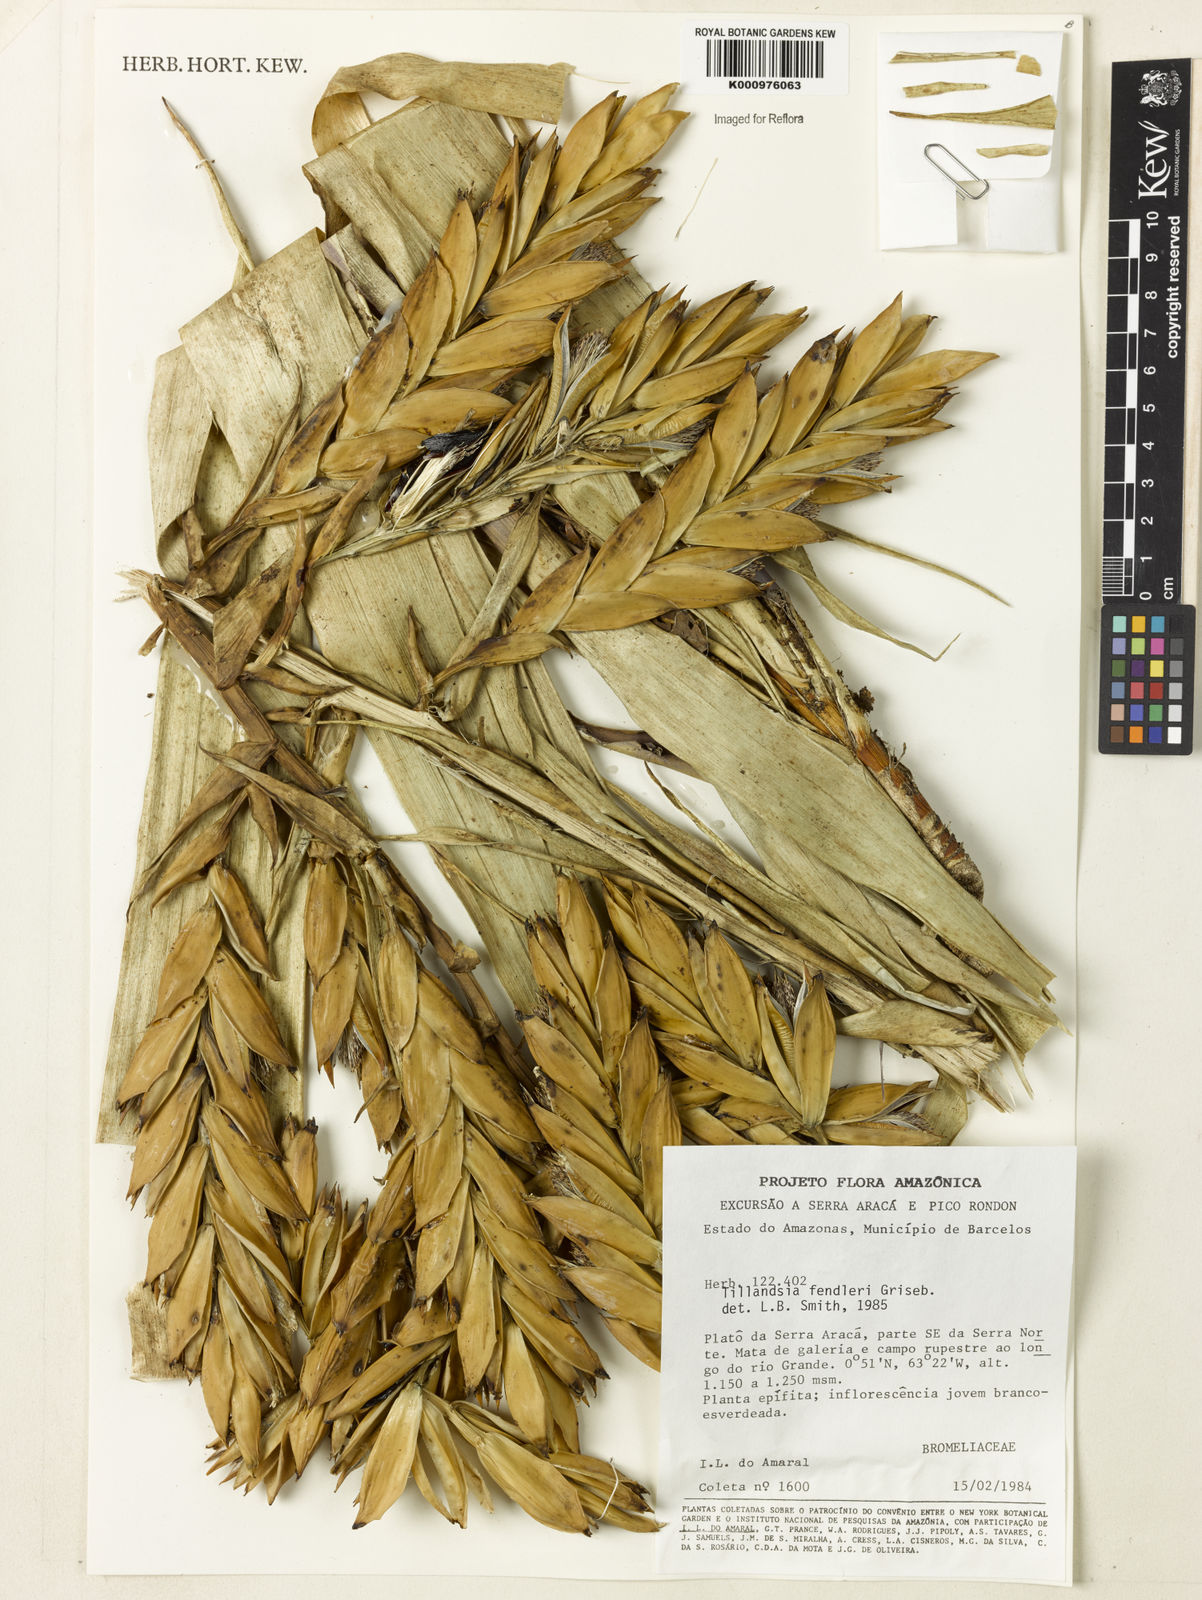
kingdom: Plantae
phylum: Tracheophyta
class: Liliopsida
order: Poales
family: Bromeliaceae
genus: Tillandsia
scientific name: Tillandsia fendleri
